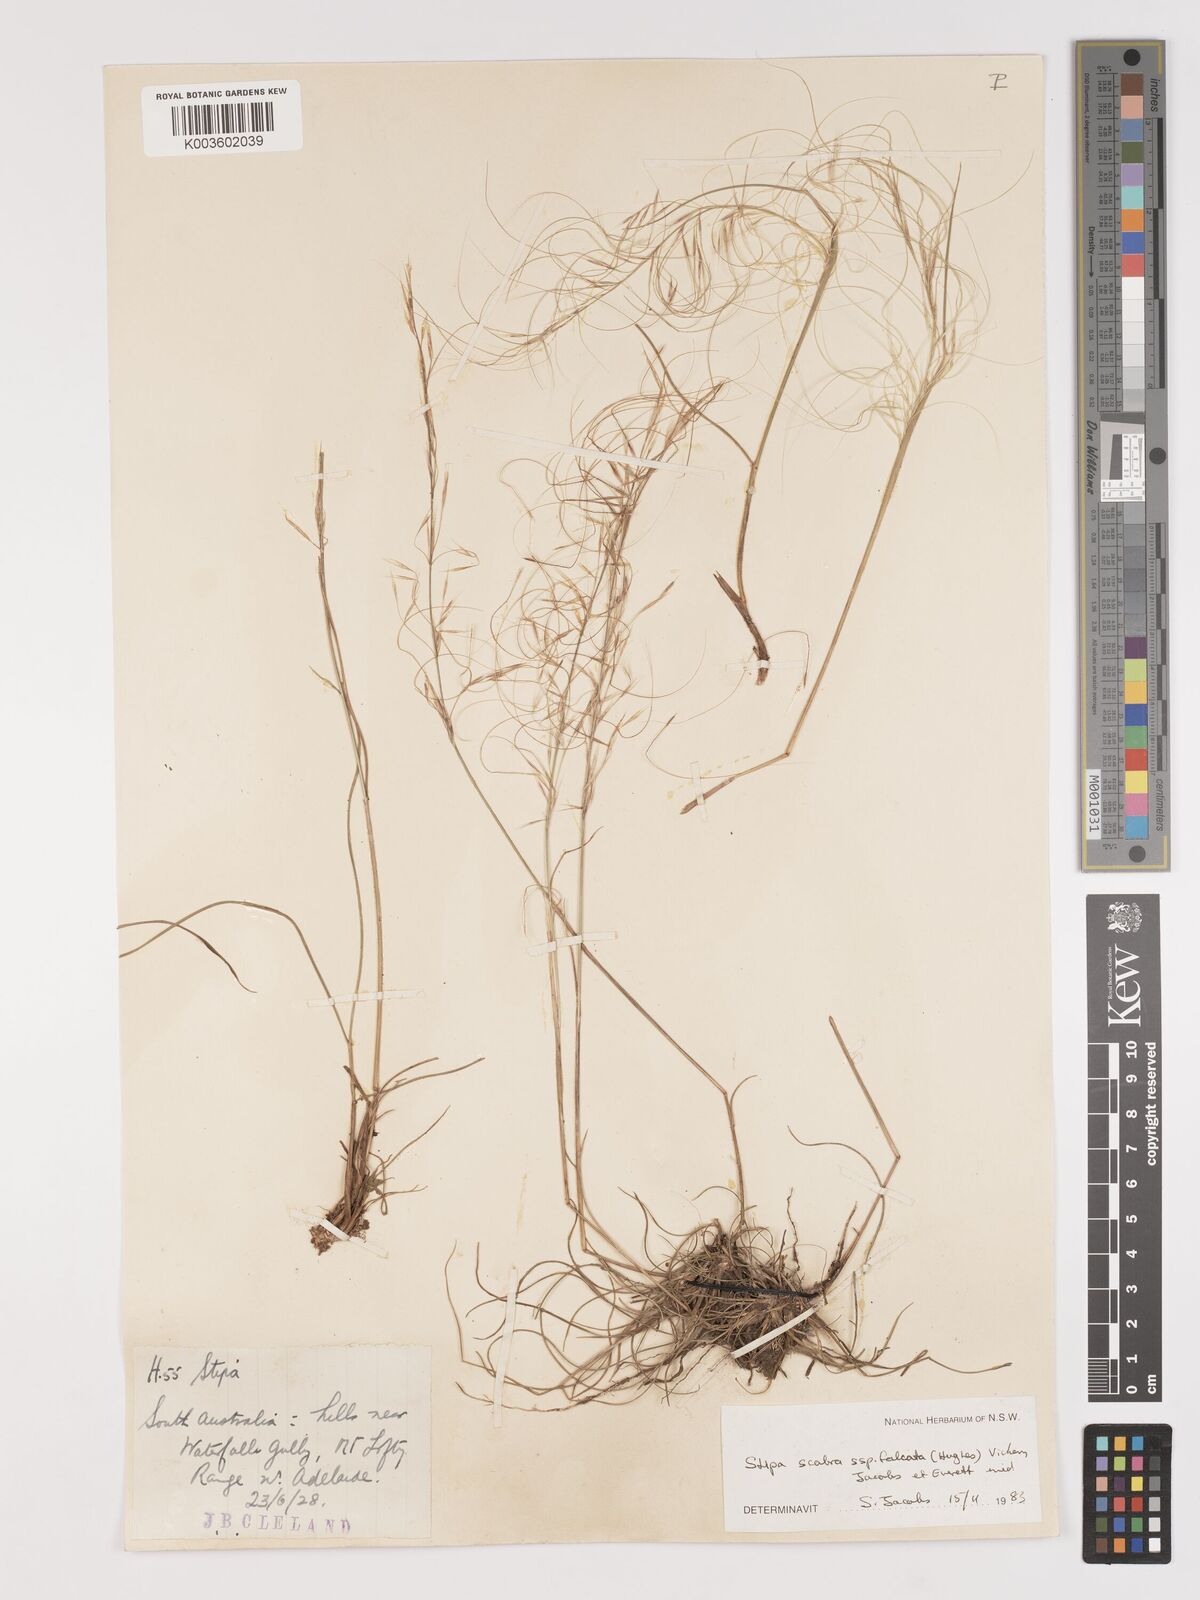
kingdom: Plantae
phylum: Tracheophyta
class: Liliopsida
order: Poales
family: Poaceae
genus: Austrostipa
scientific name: Austrostipa scabra
